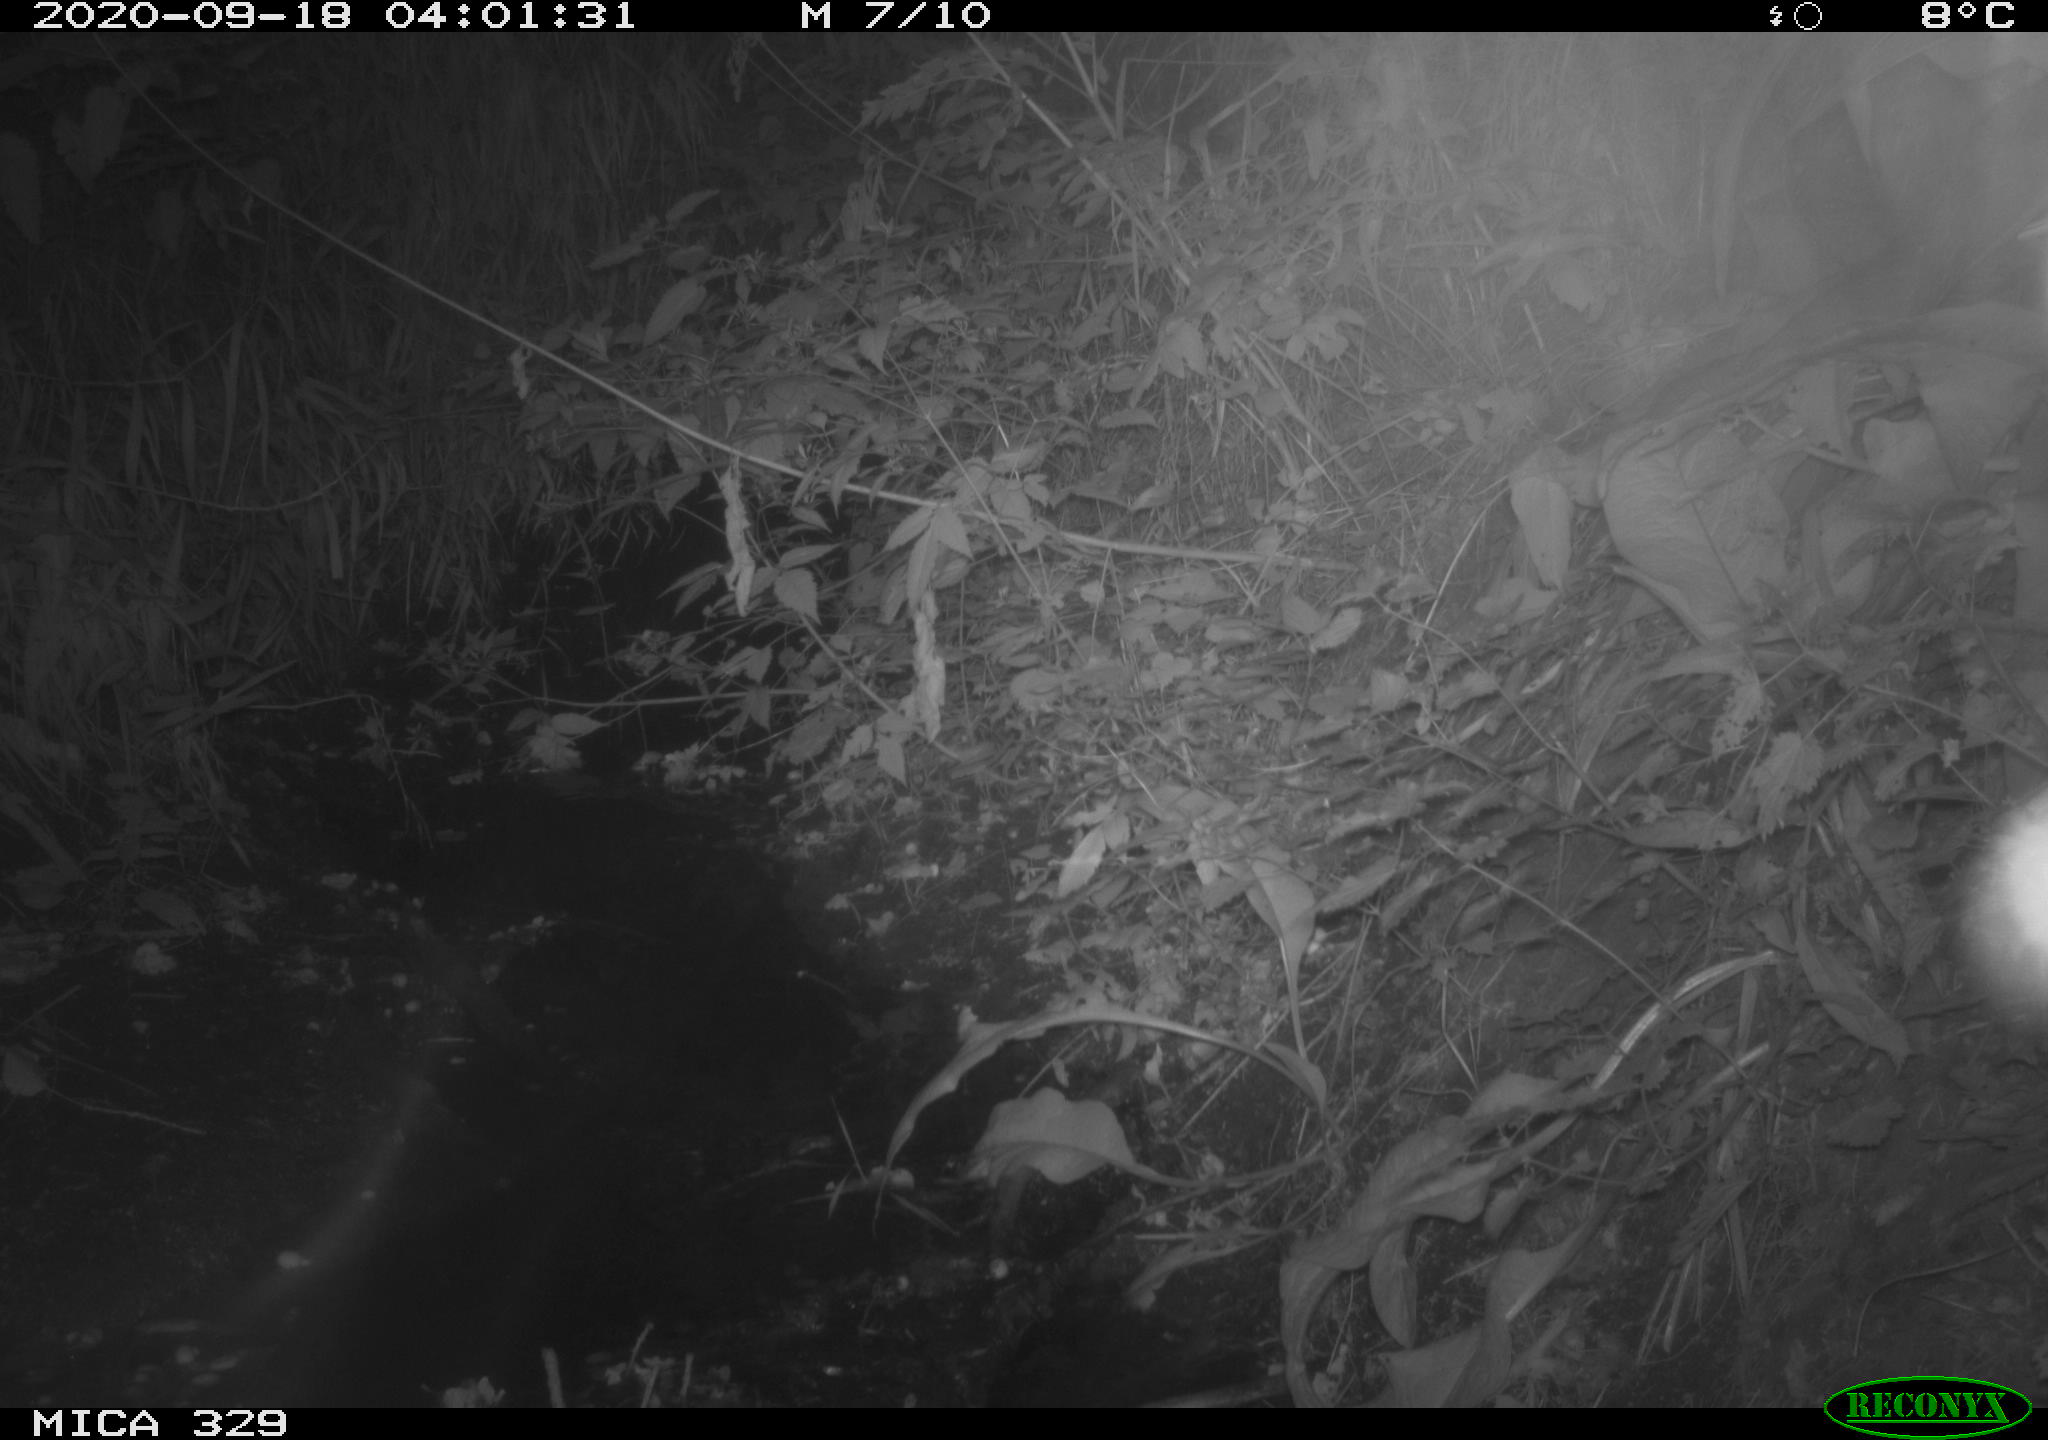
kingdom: Animalia
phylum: Chordata
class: Mammalia
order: Rodentia
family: Muridae
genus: Rattus
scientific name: Rattus norvegicus
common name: Brown rat
